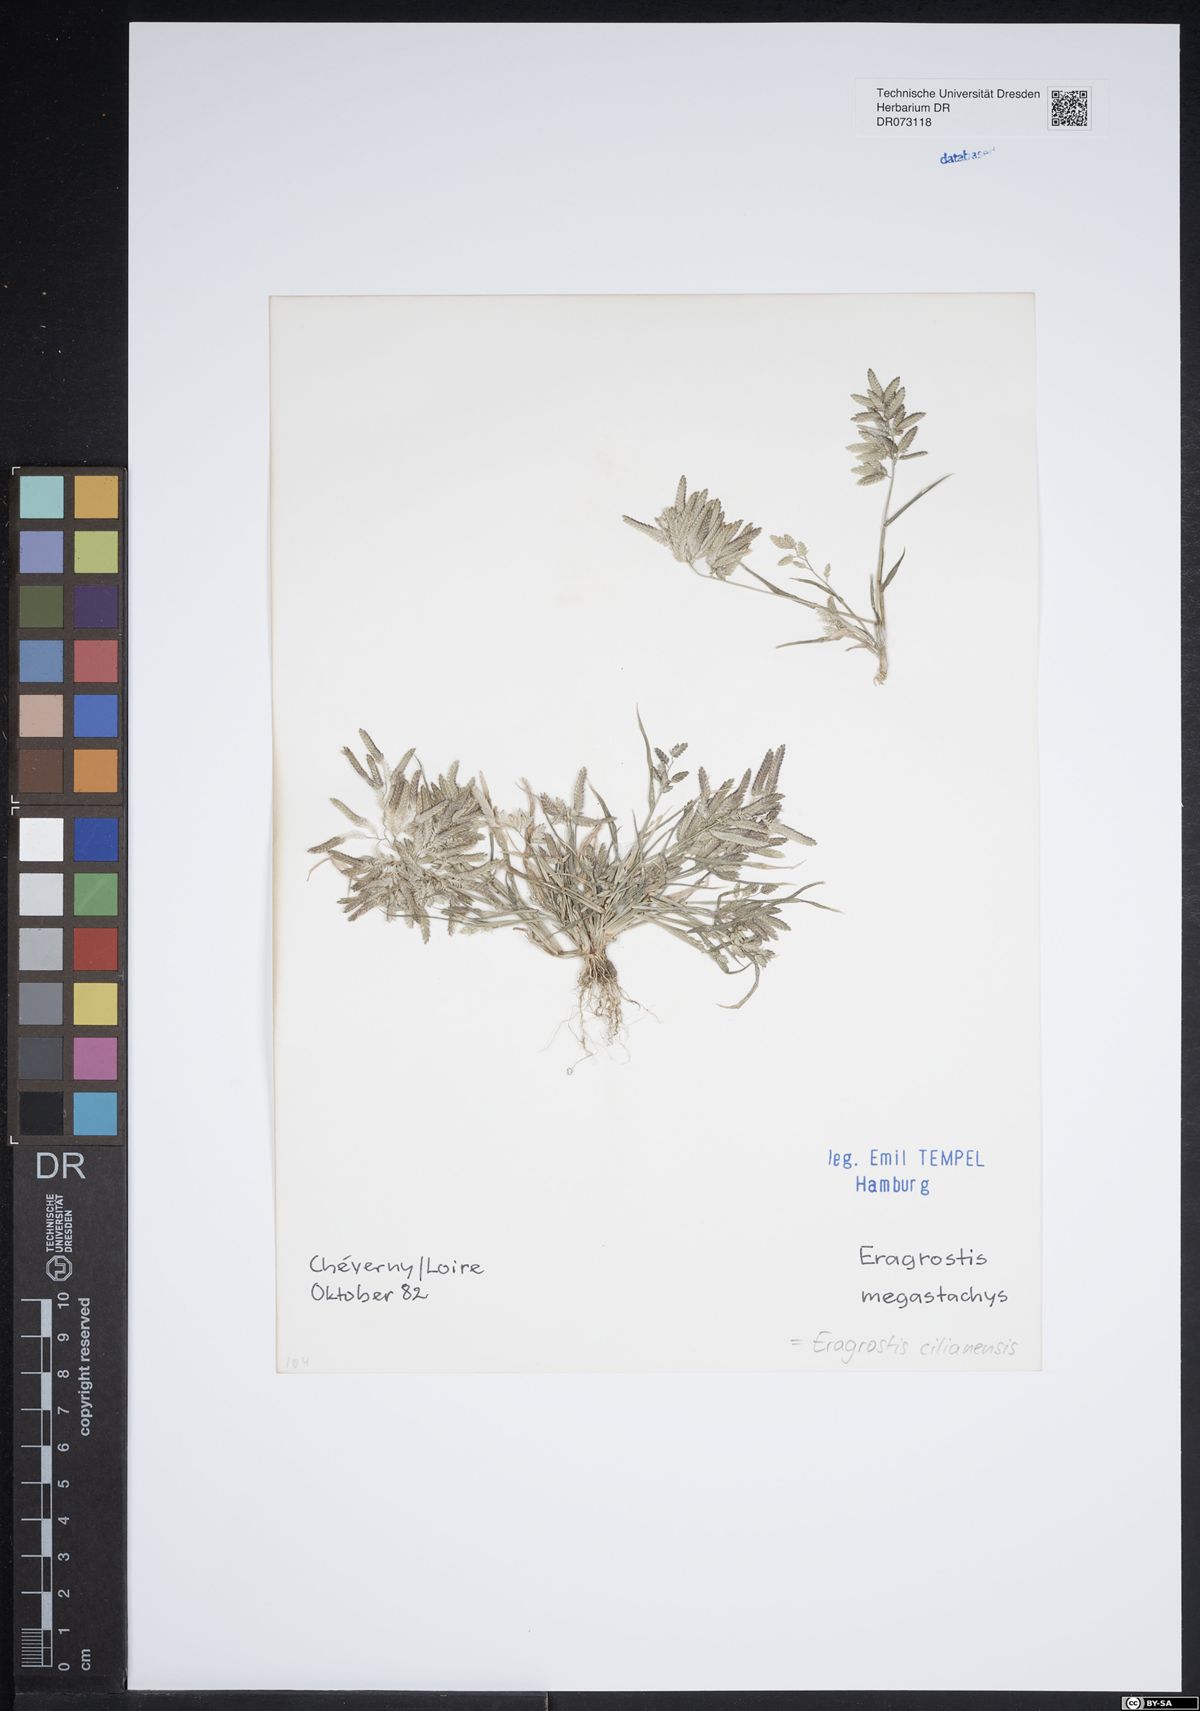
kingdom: Plantae
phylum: Tracheophyta
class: Liliopsida
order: Poales
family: Poaceae
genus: Eragrostis
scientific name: Eragrostis cilianensis
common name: Stinkgrass
